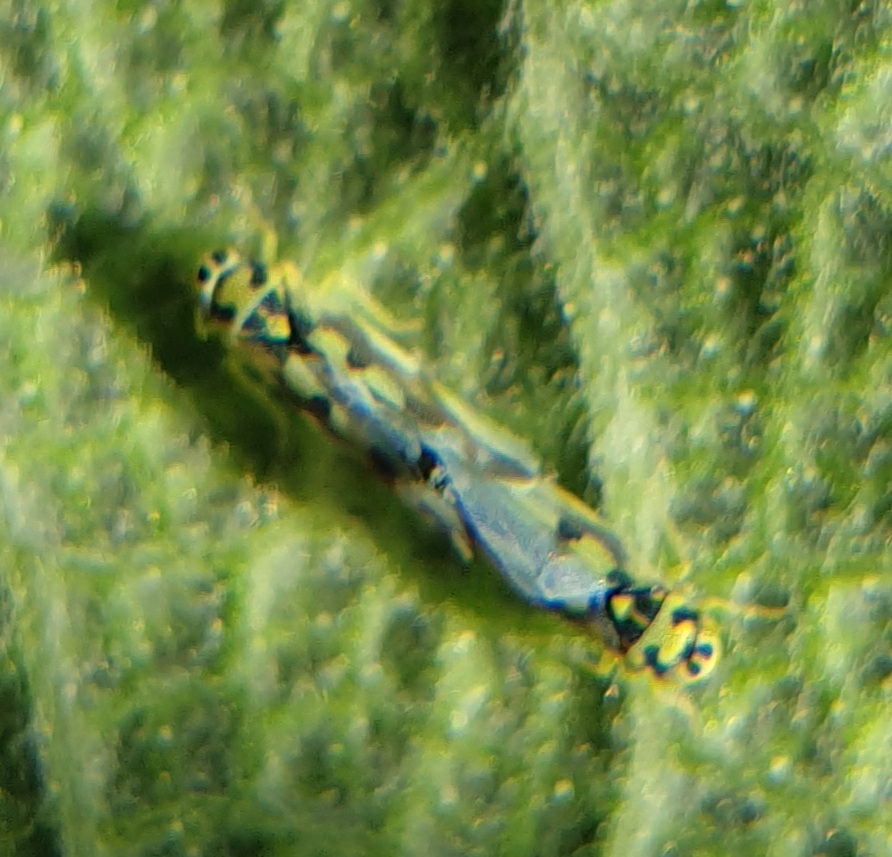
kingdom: Animalia
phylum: Arthropoda
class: Insecta
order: Hemiptera
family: Cicadellidae
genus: Eupteryx
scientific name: Eupteryx aurata
